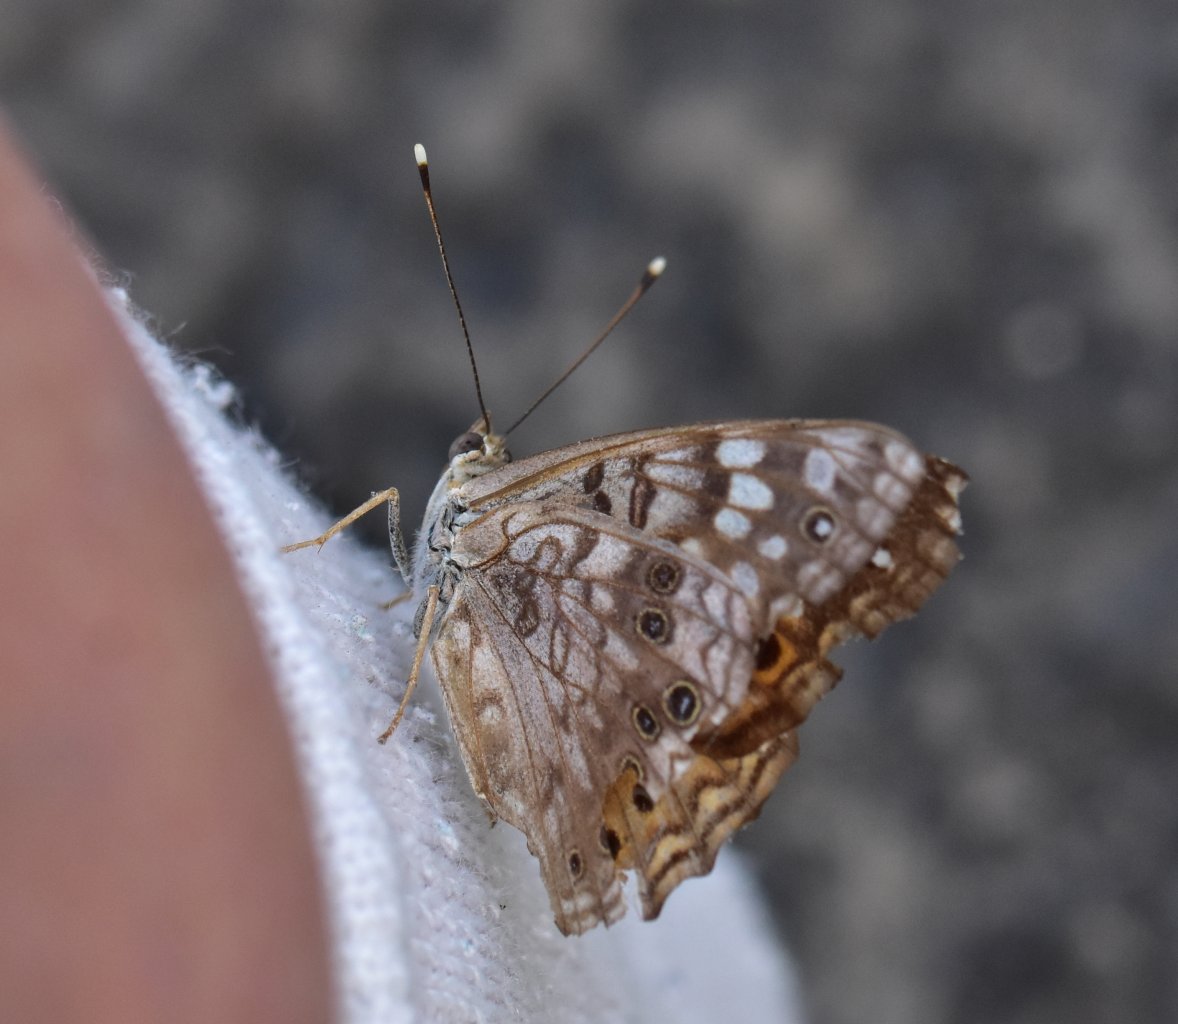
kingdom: Animalia
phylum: Arthropoda
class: Insecta
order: Lepidoptera
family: Nymphalidae
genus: Asterocampa
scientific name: Asterocampa celtis
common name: Hackberry Emperor
